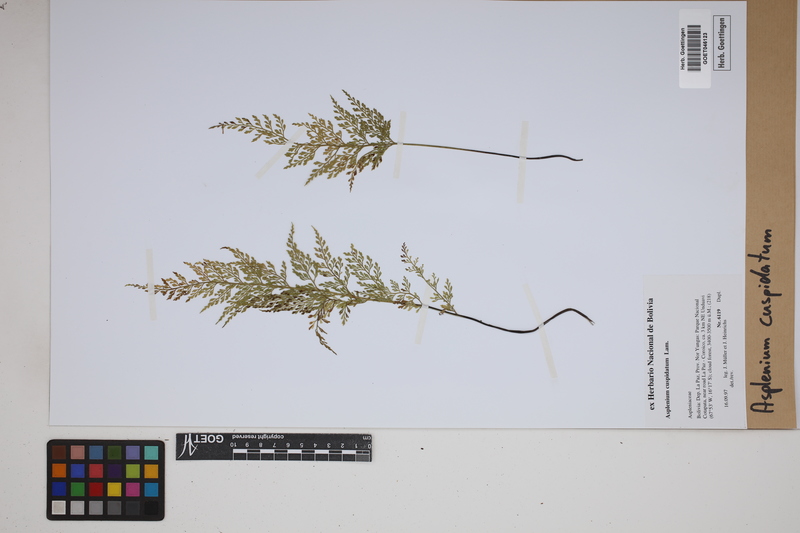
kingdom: Plantae
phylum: Tracheophyta
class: Polypodiopsida
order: Polypodiales
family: Aspleniaceae
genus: Asplenium
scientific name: Asplenium cuspidatum
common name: Eared spleenwort
